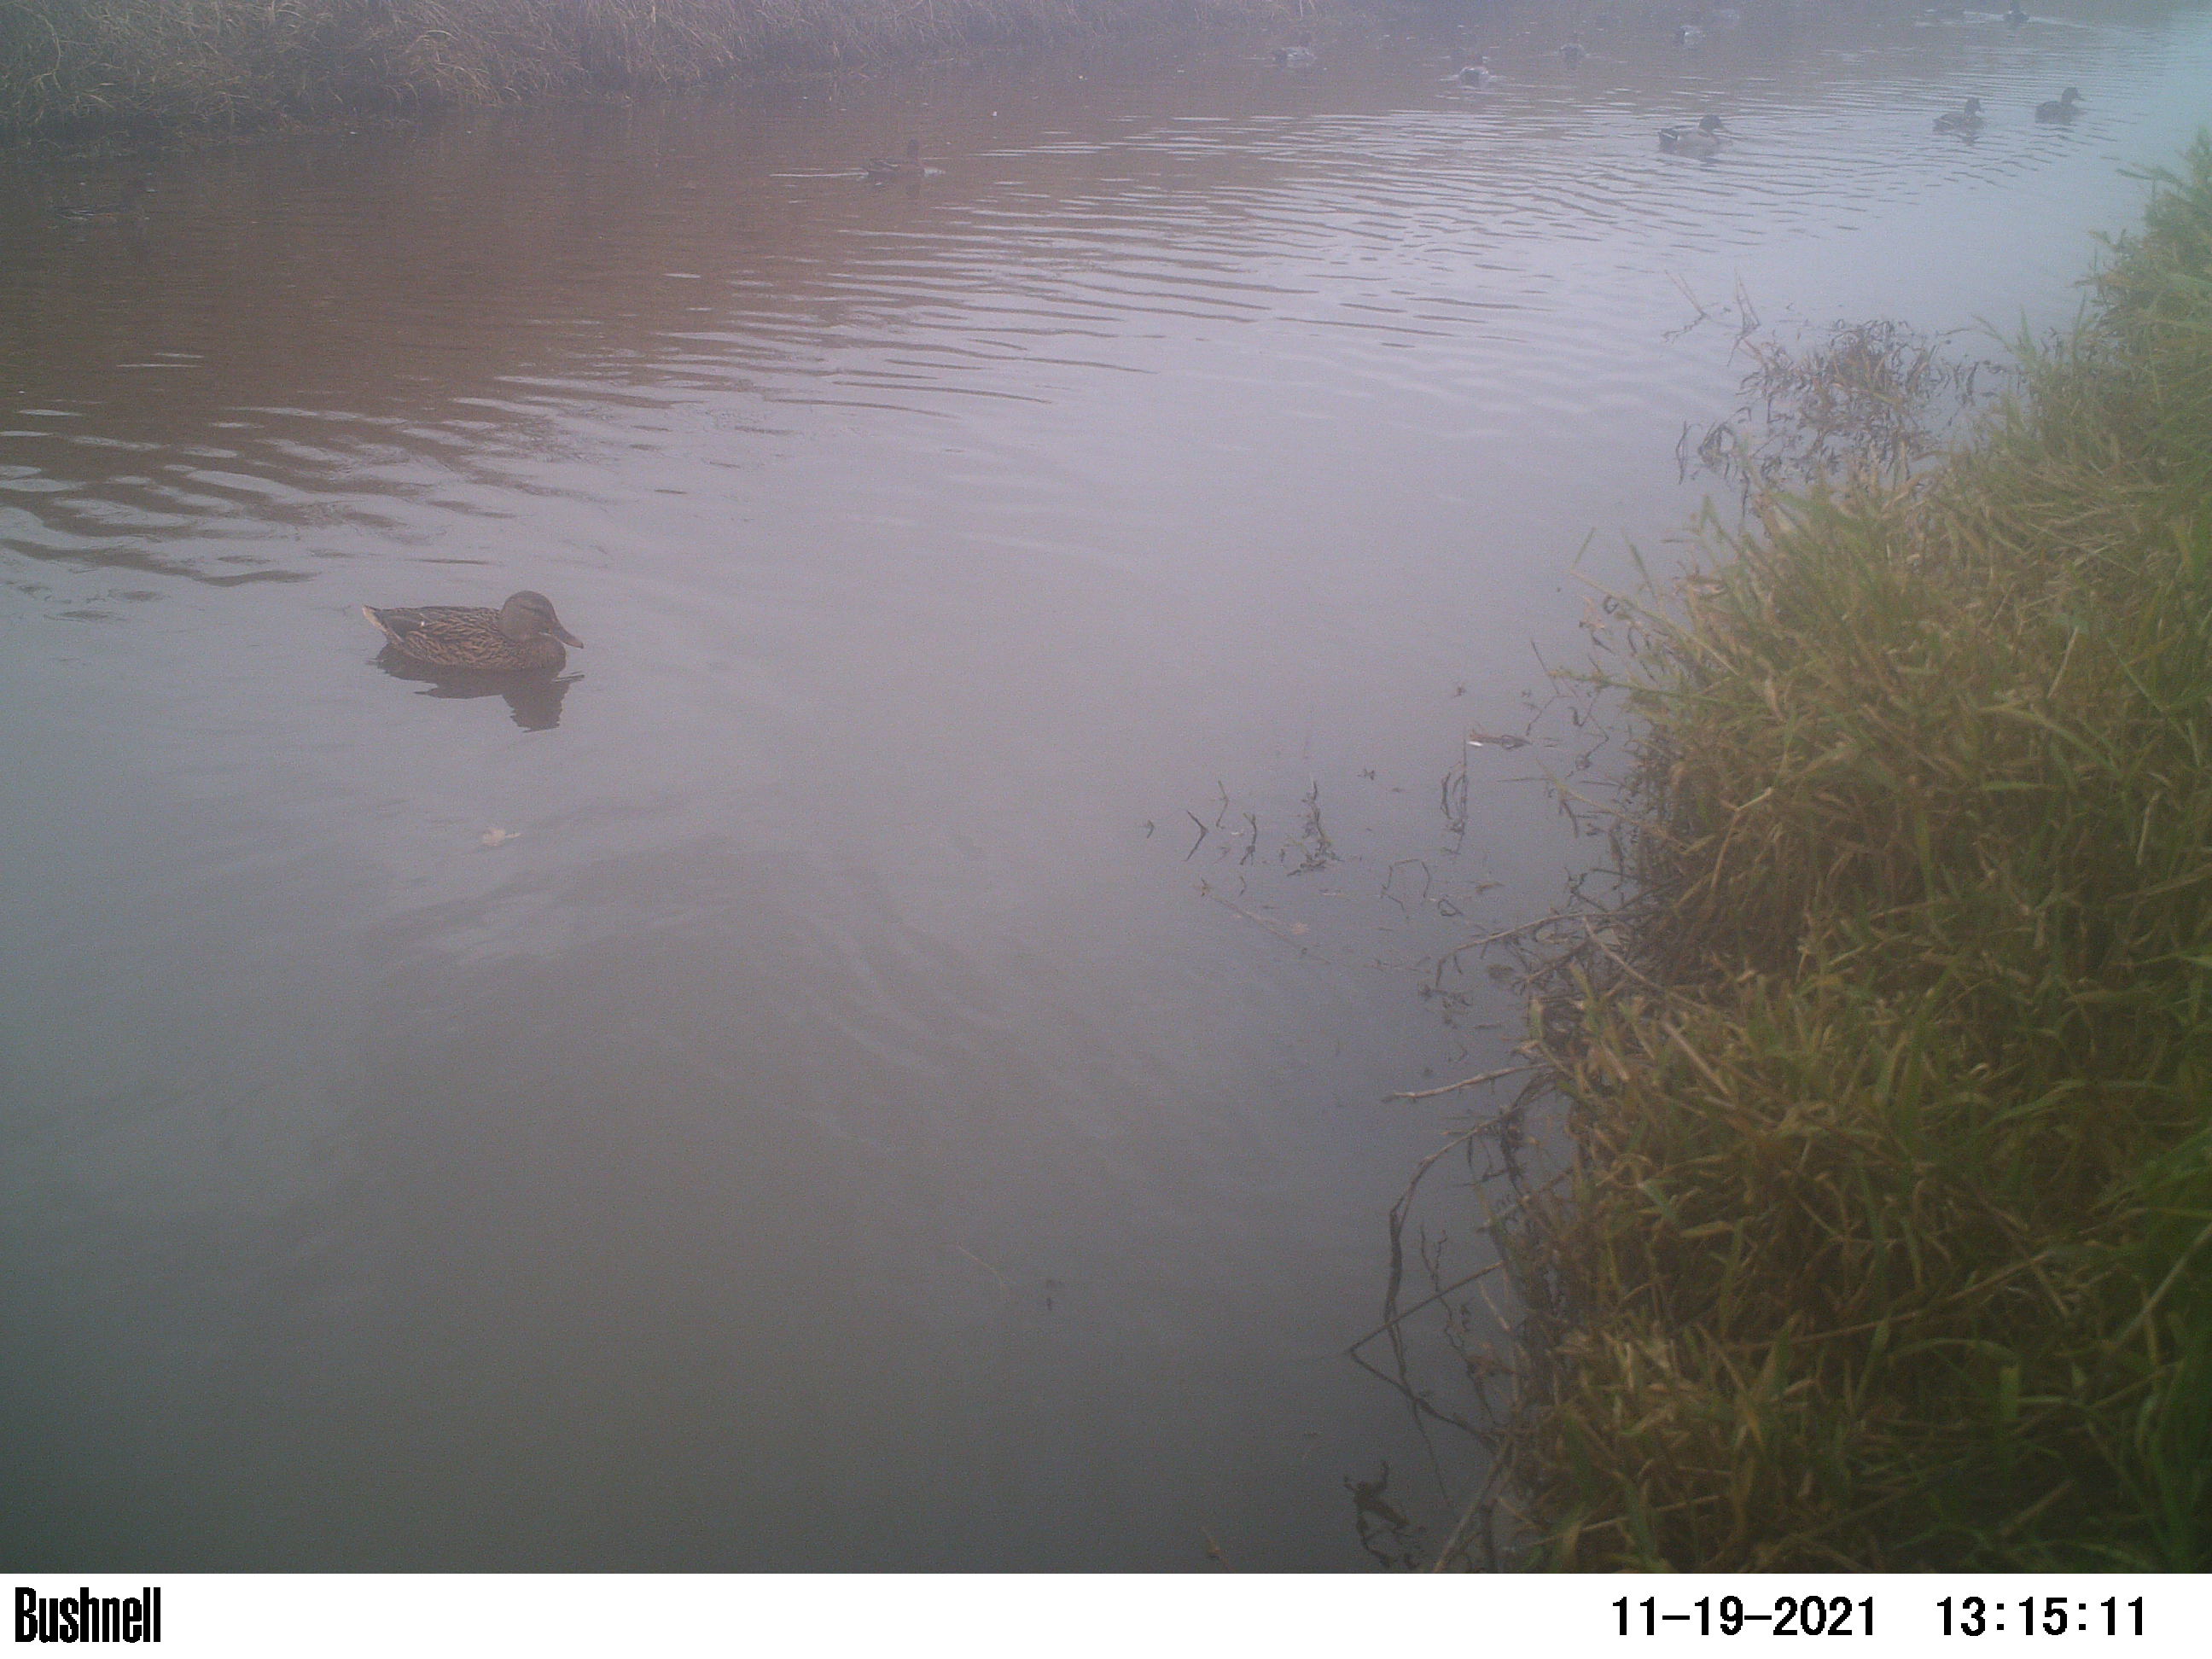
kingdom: Animalia
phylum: Chordata
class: Aves
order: Anseriformes
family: Anatidae
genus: Anas
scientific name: Anas
